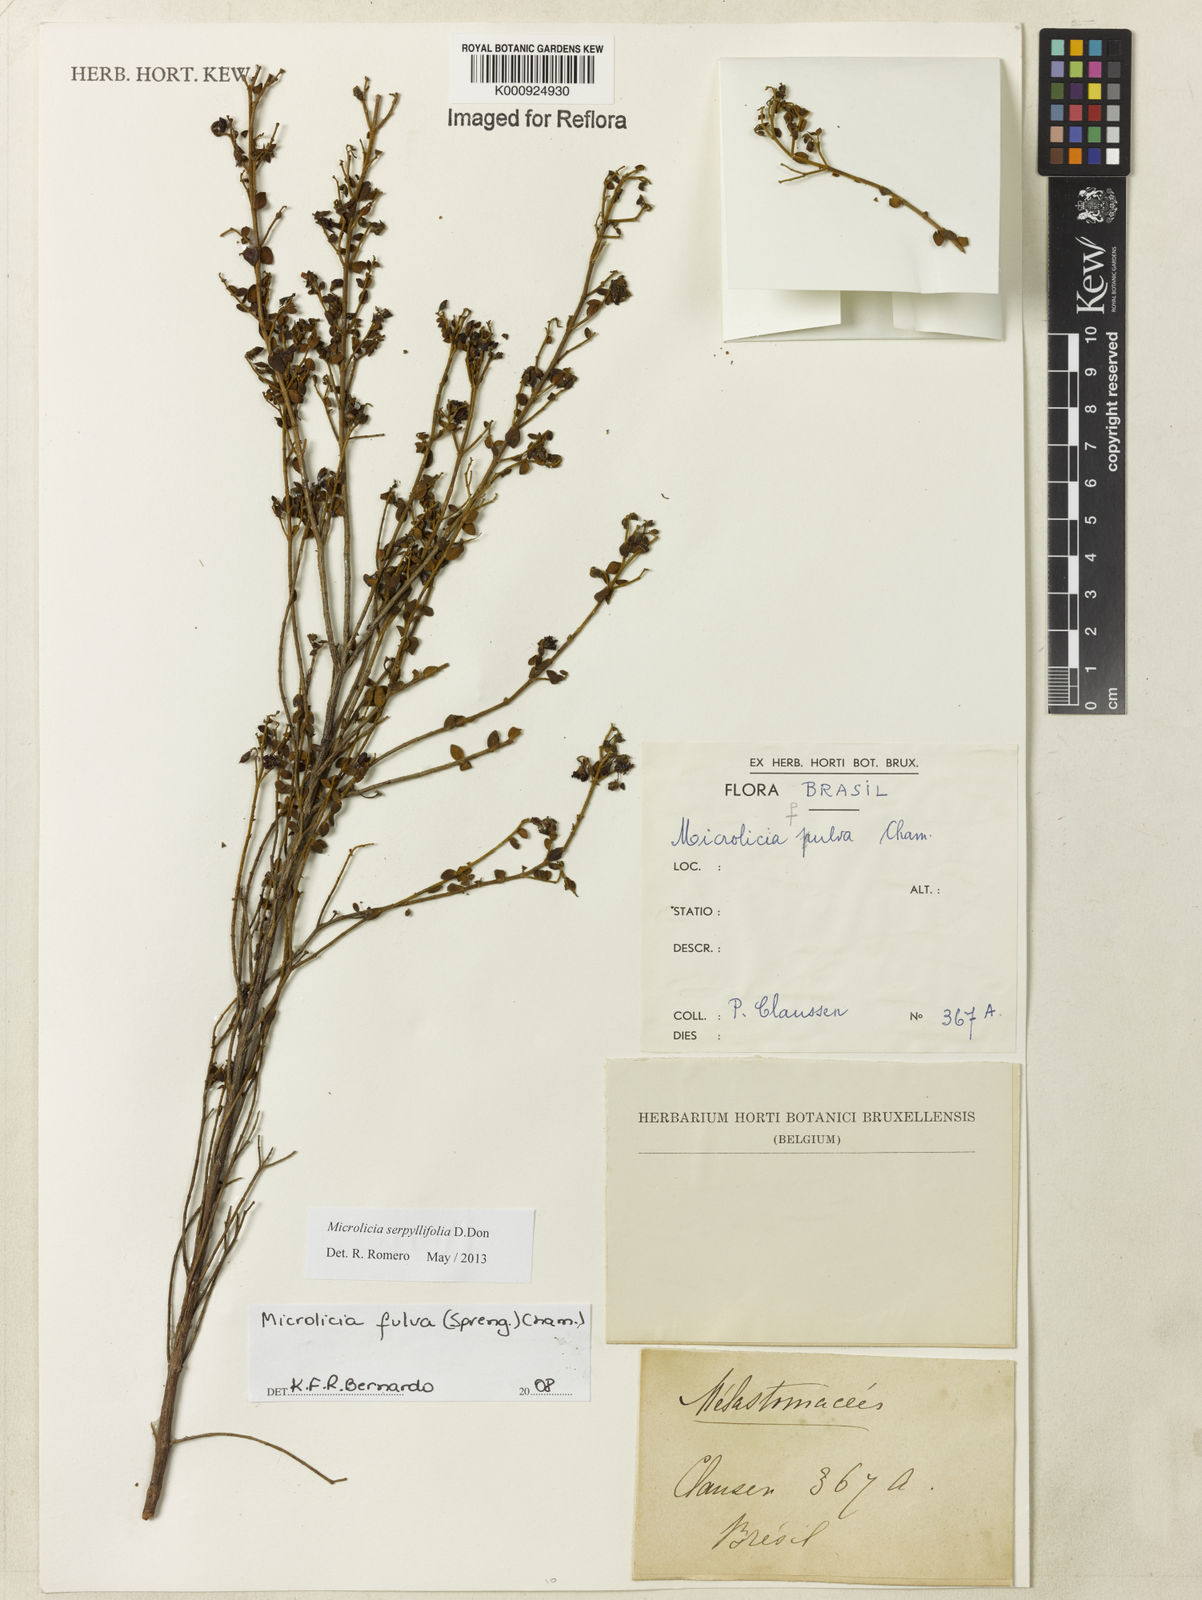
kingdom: Plantae
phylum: Tracheophyta
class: Magnoliopsida
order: Myrtales
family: Melastomataceae
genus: Microlicia
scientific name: Microlicia fulva
